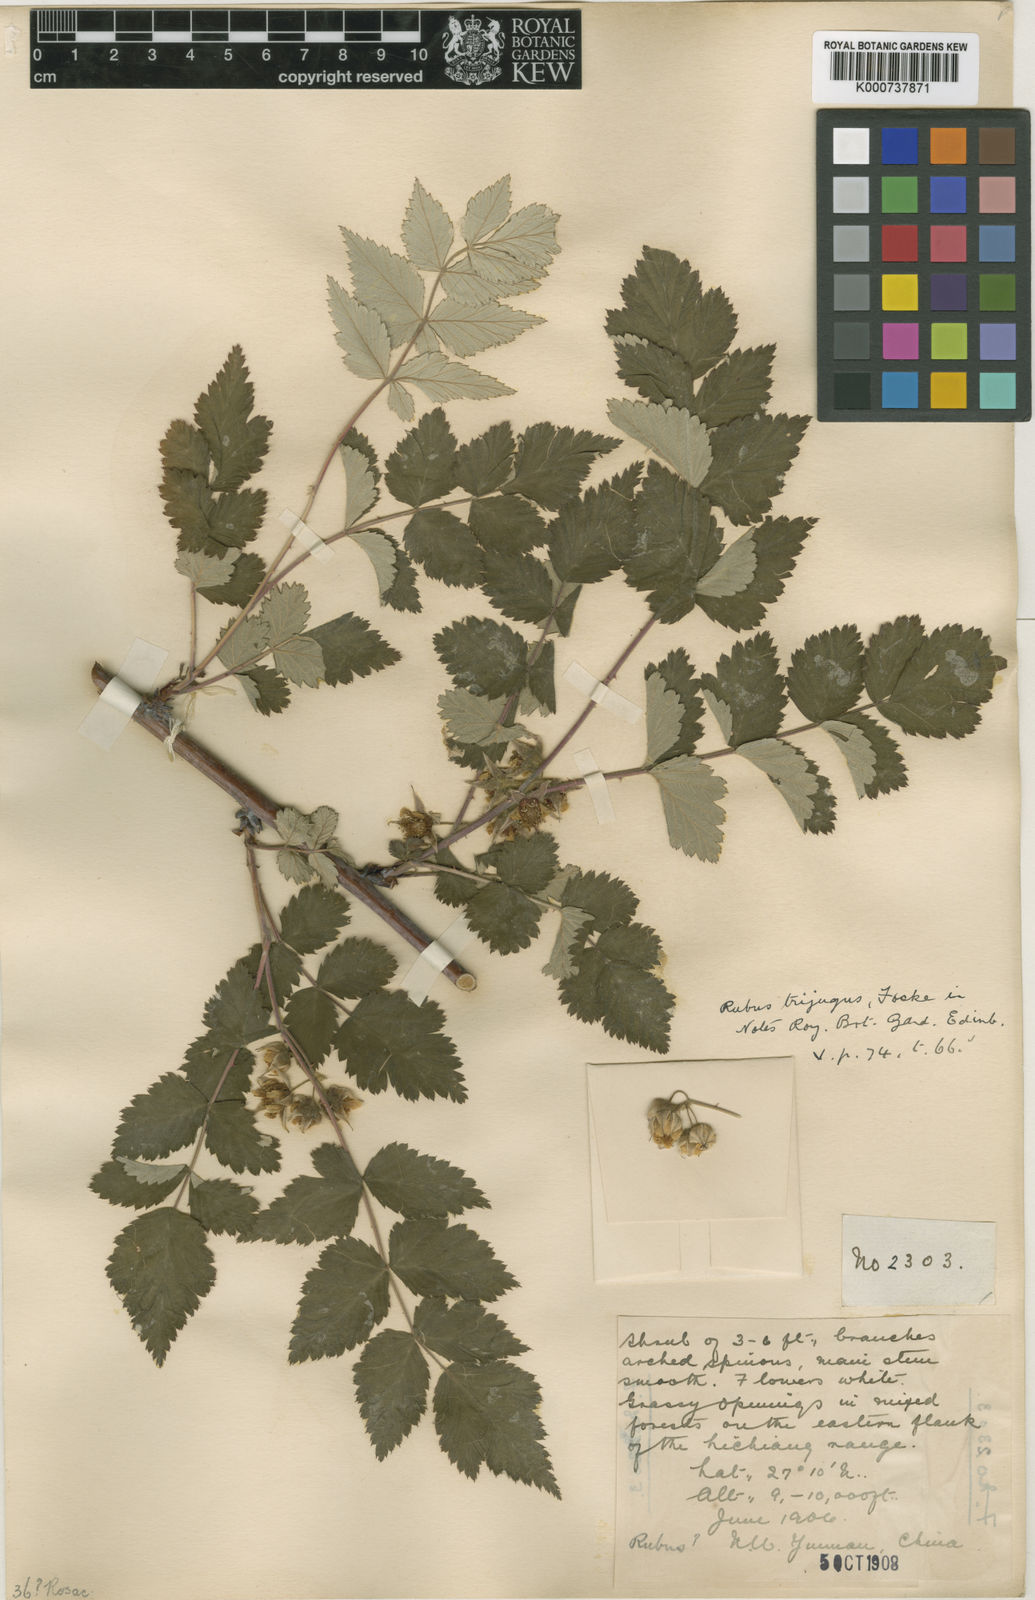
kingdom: Plantae
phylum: Tracheophyta
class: Magnoliopsida
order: Rosales
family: Rosaceae
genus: Rubus
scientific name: Rubus trijugus
